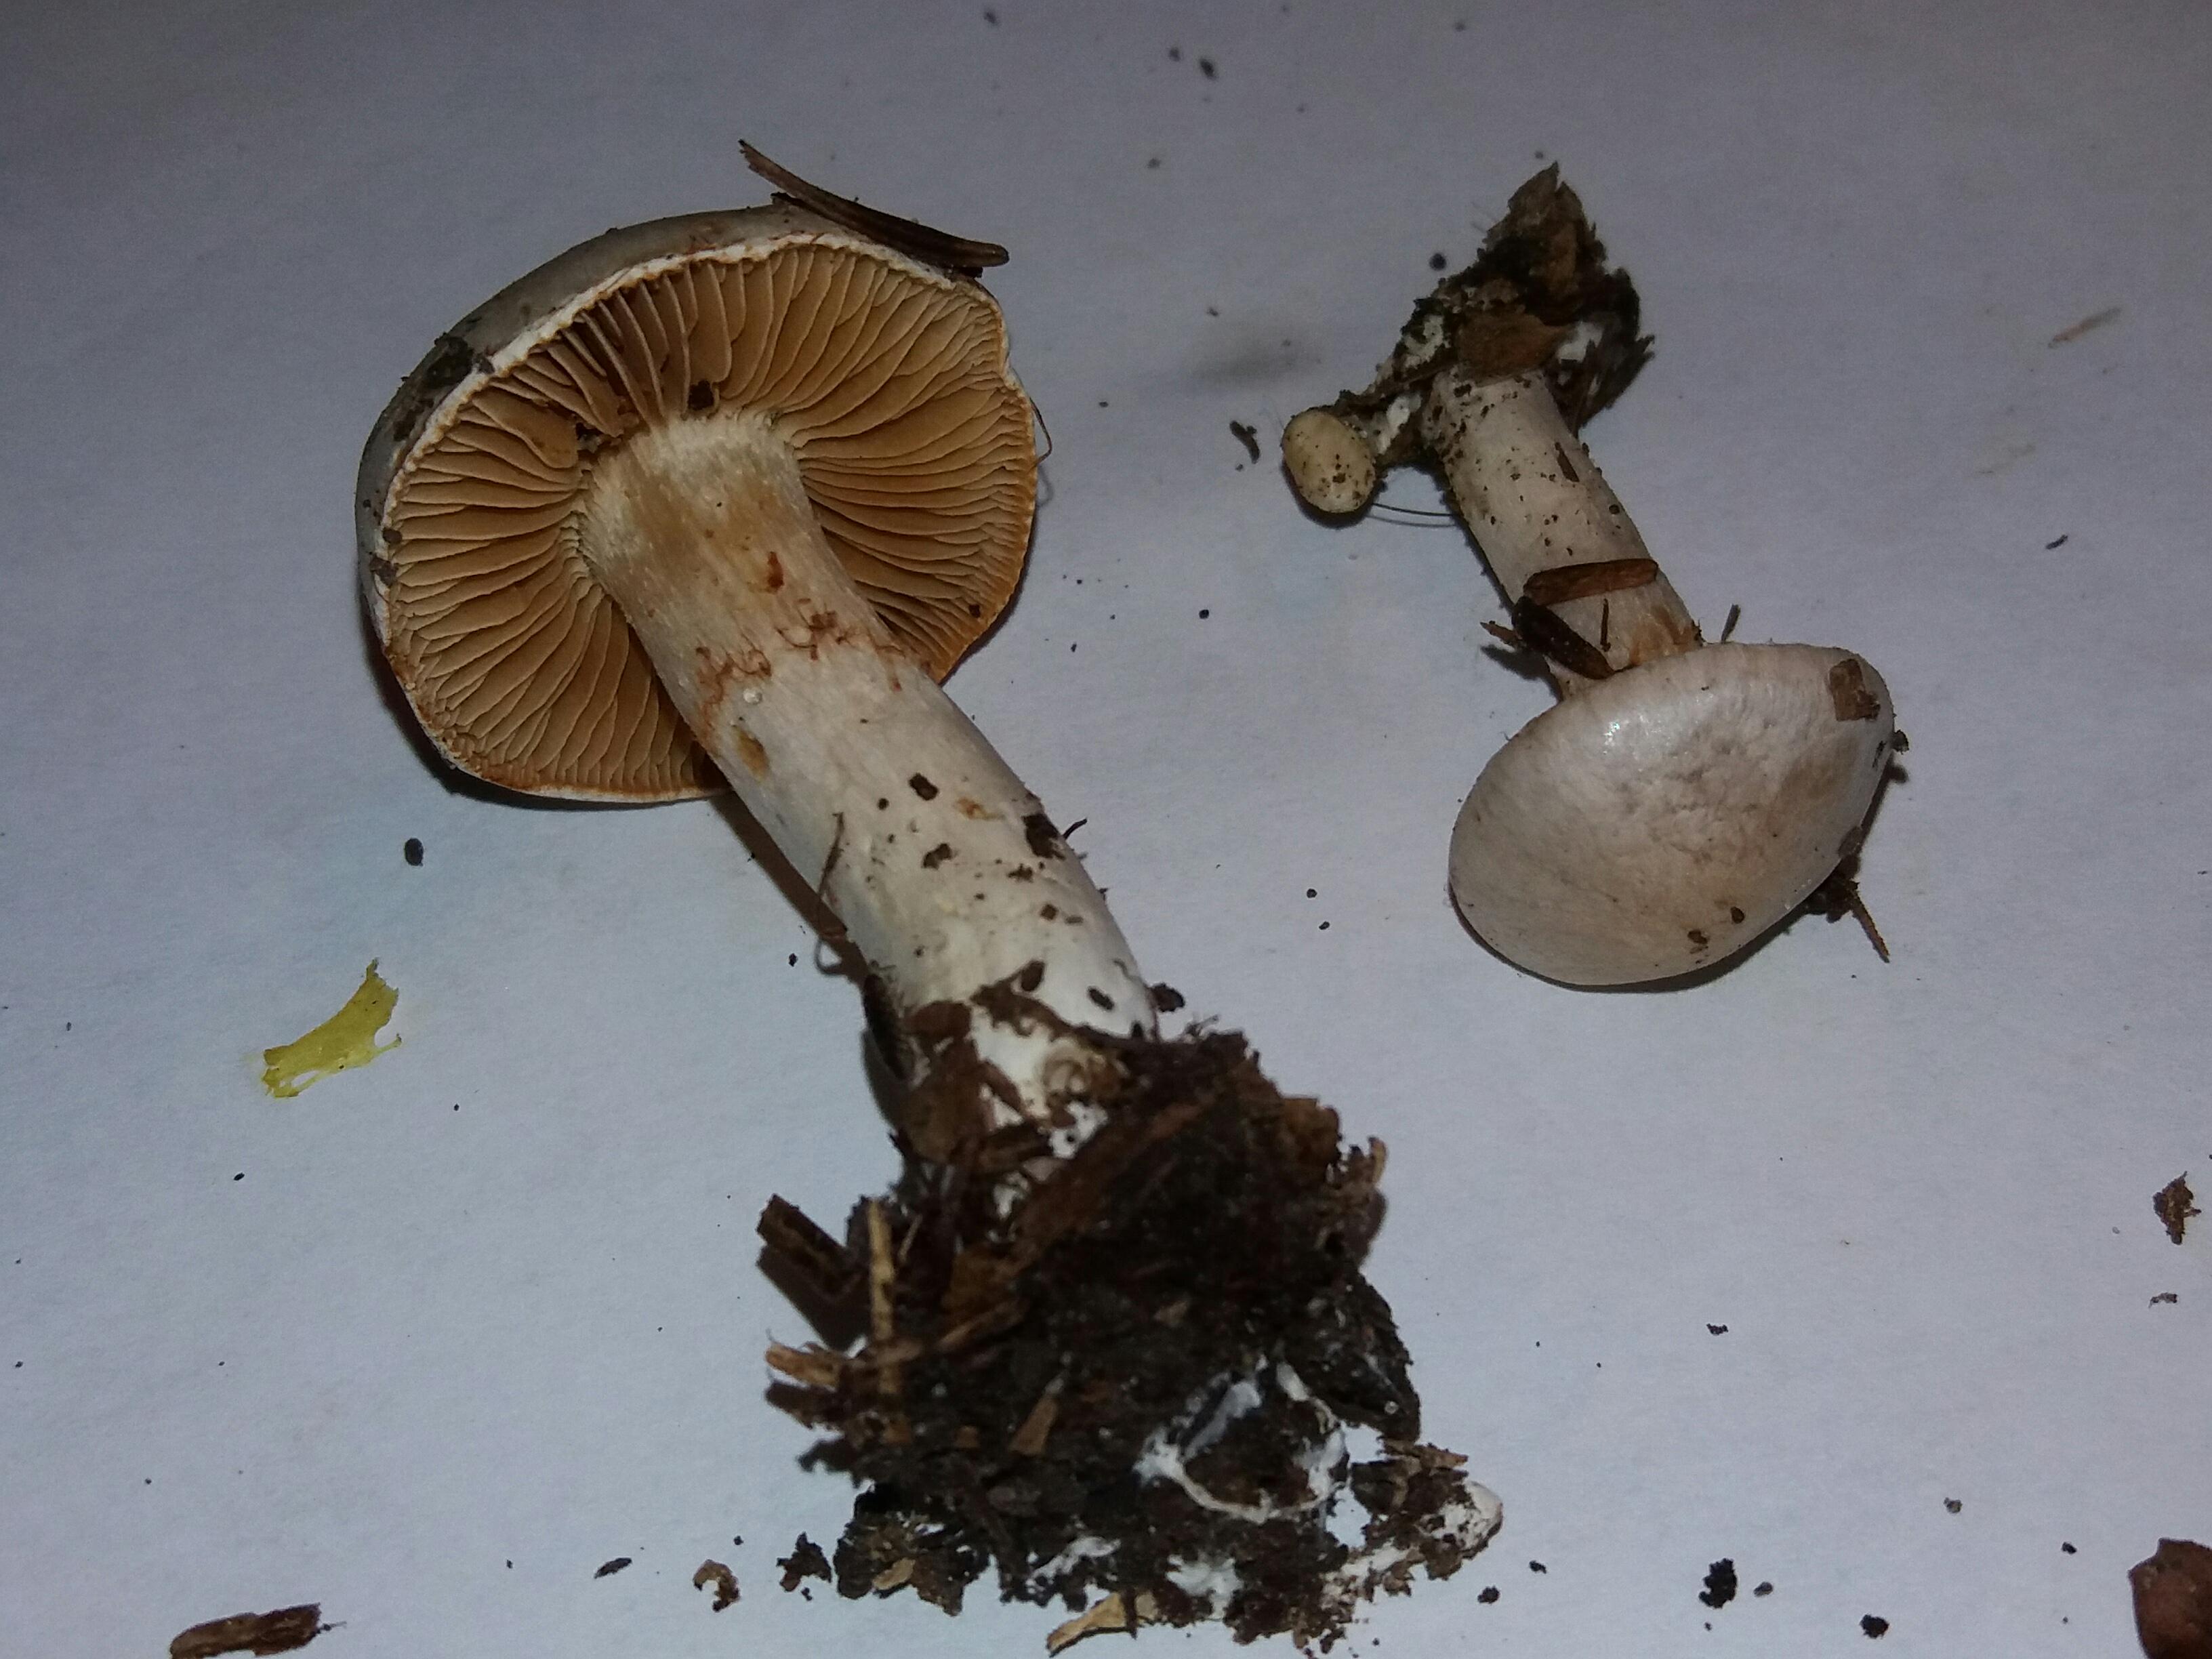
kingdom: Fungi
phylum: Basidiomycota
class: Agaricomycetes
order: Agaricales
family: Cortinariaceae
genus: Cortinarius
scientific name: Cortinarius
